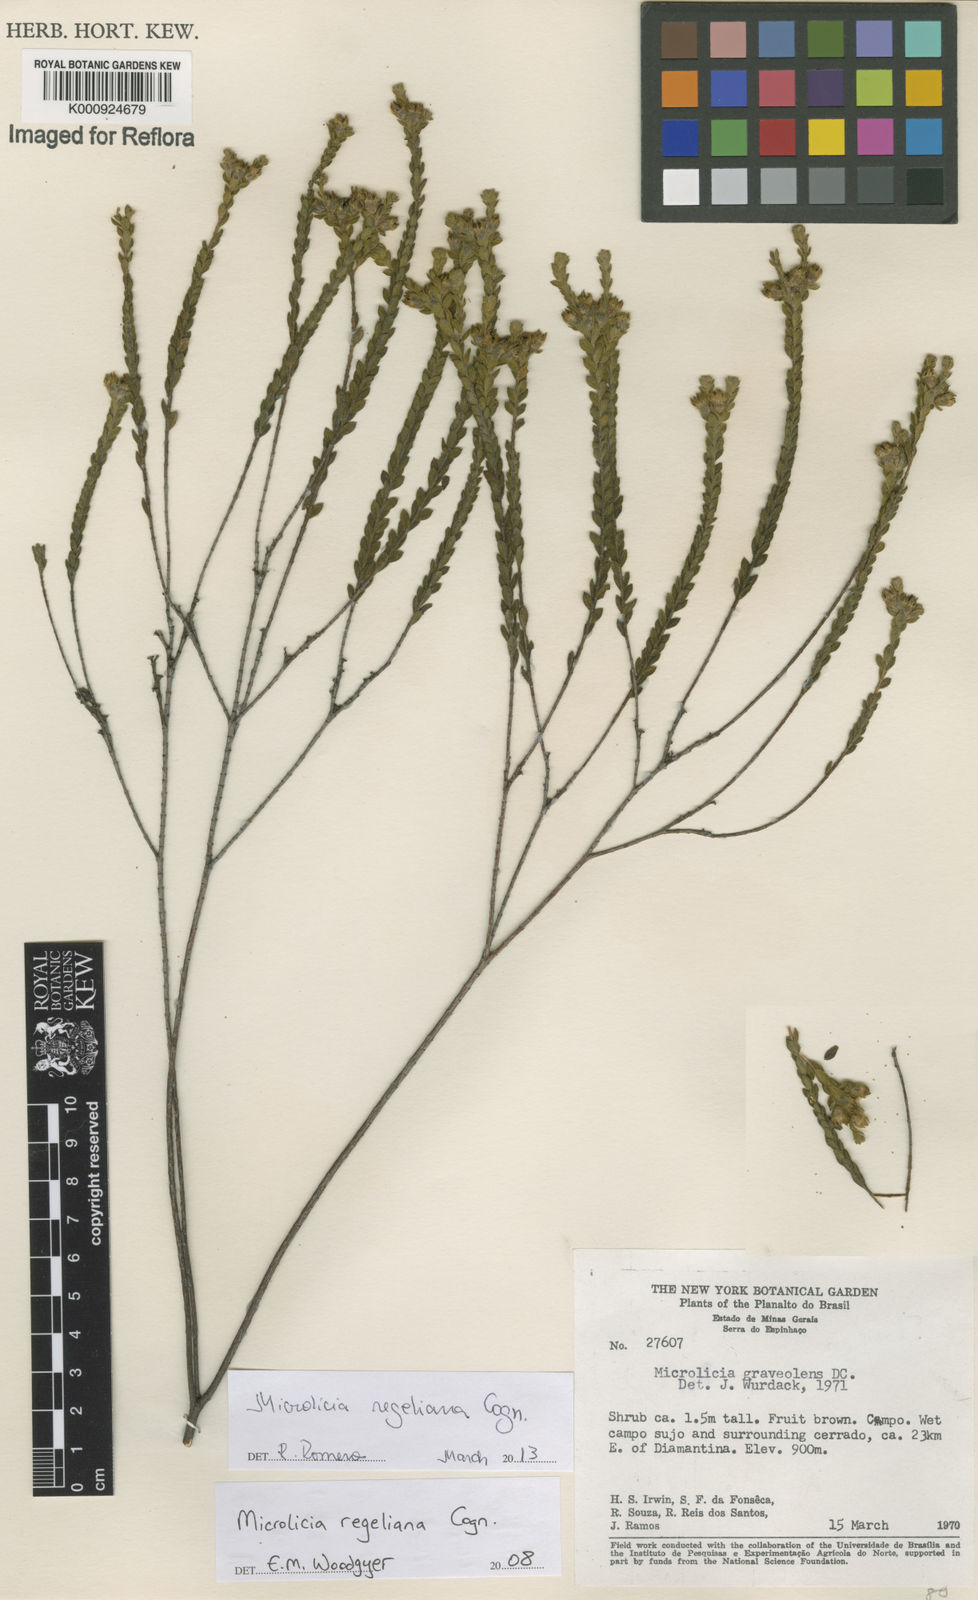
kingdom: Plantae
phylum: Tracheophyta
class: Magnoliopsida
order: Myrtales
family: Melastomataceae
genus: Microlicia
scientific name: Microlicia regeliana
